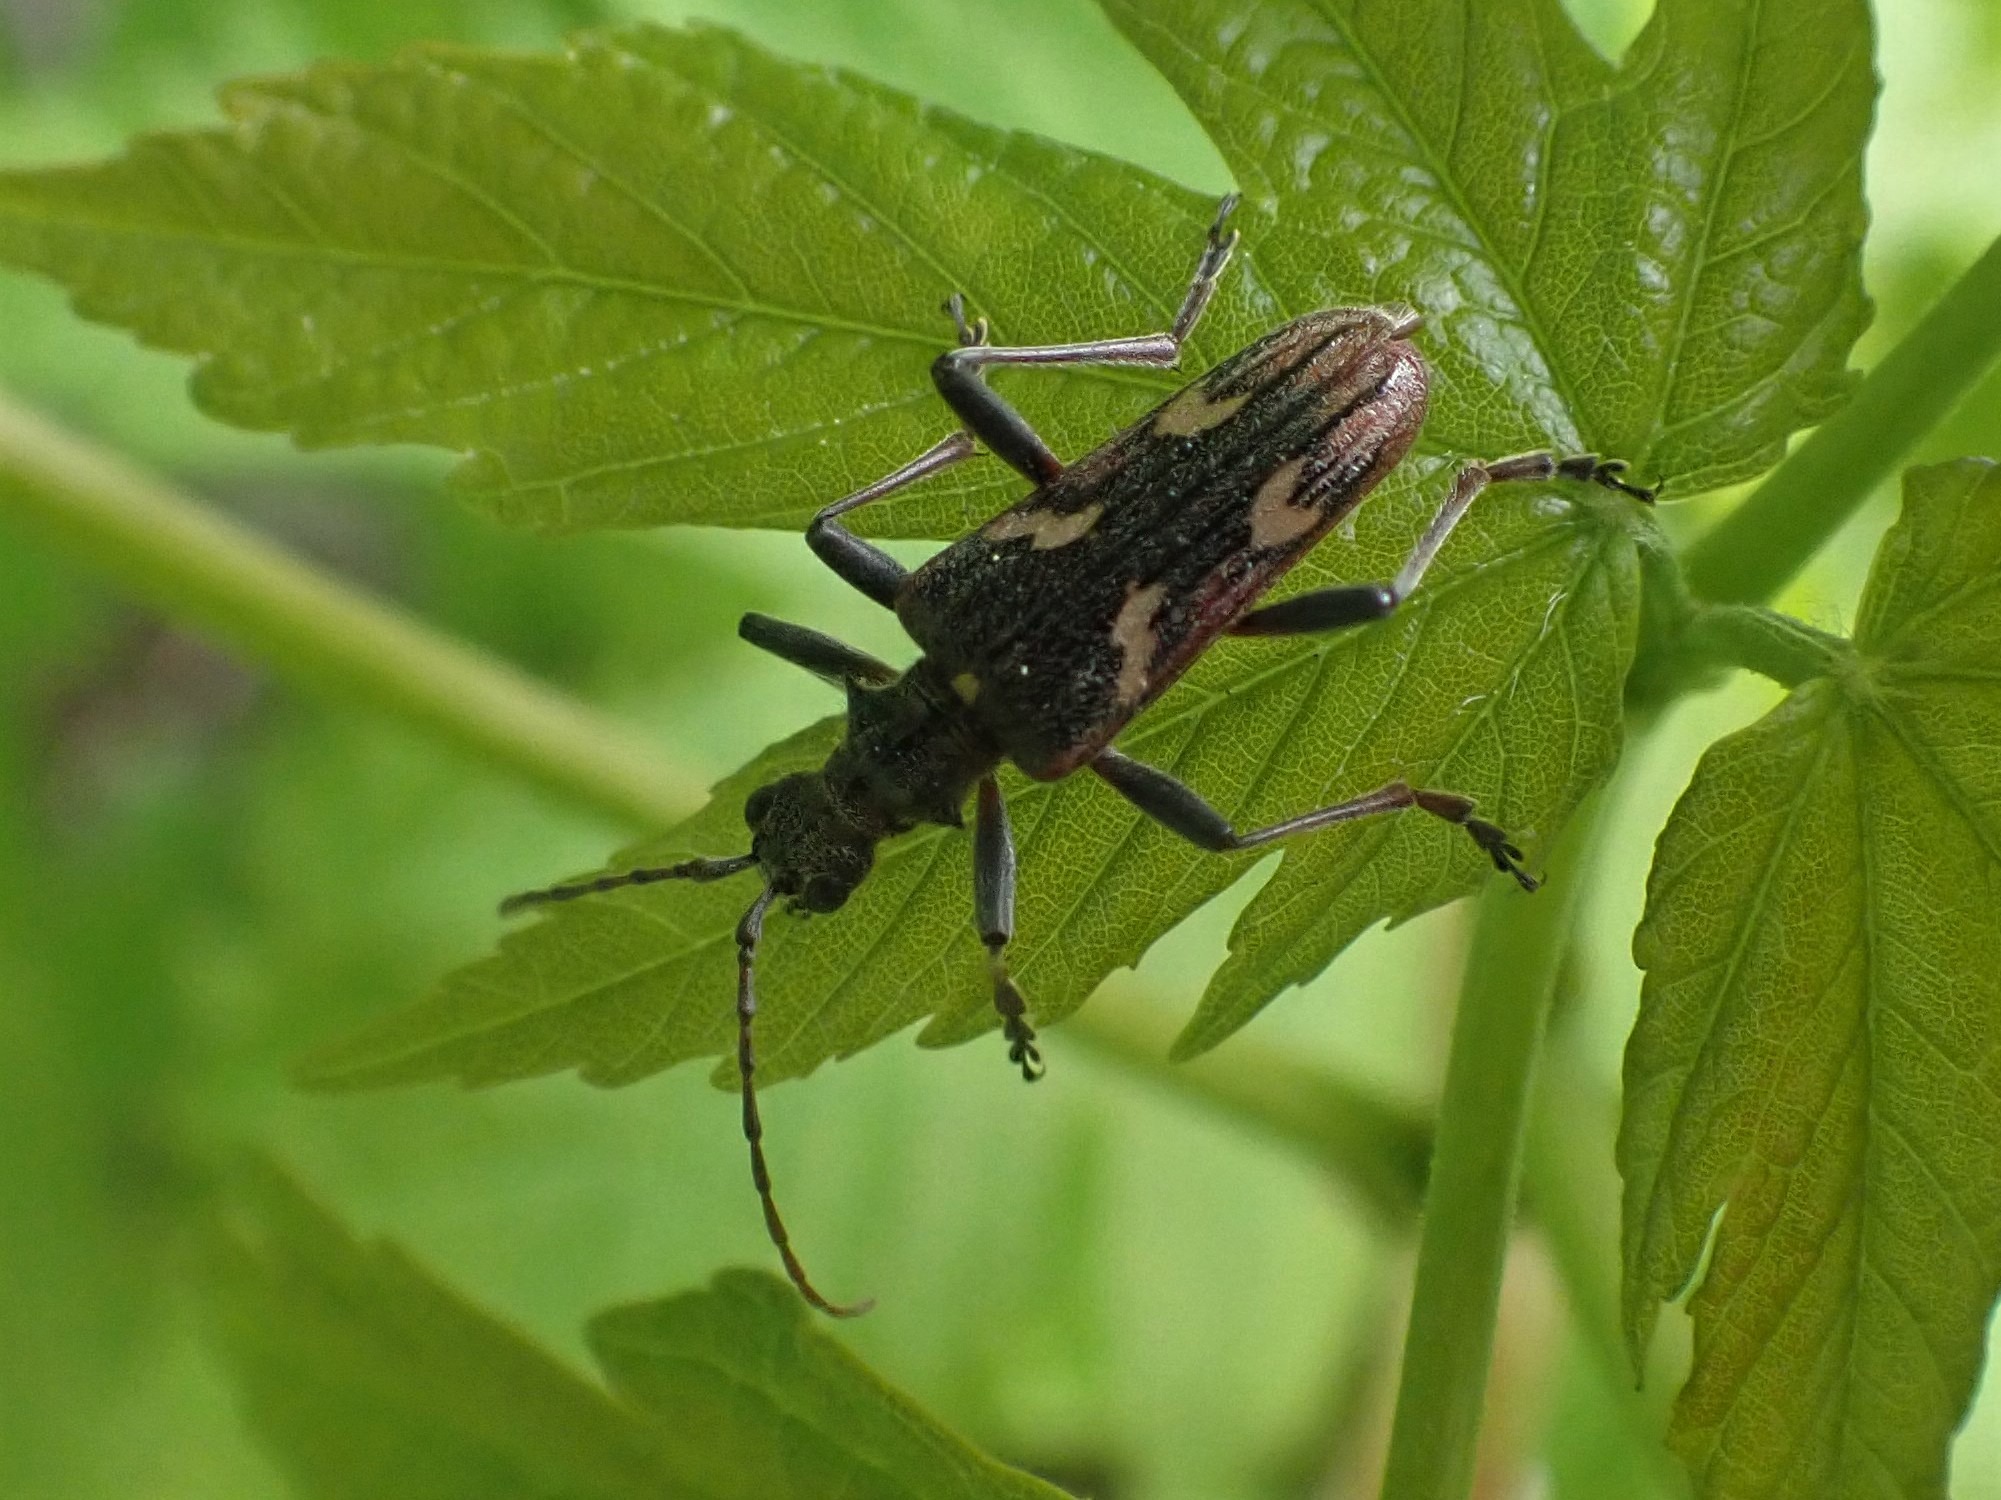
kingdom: Animalia
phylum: Arthropoda
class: Insecta
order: Coleoptera
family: Cerambycidae
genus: Rhagium
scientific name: Rhagium bifasciatum
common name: Båndet tandbuk
